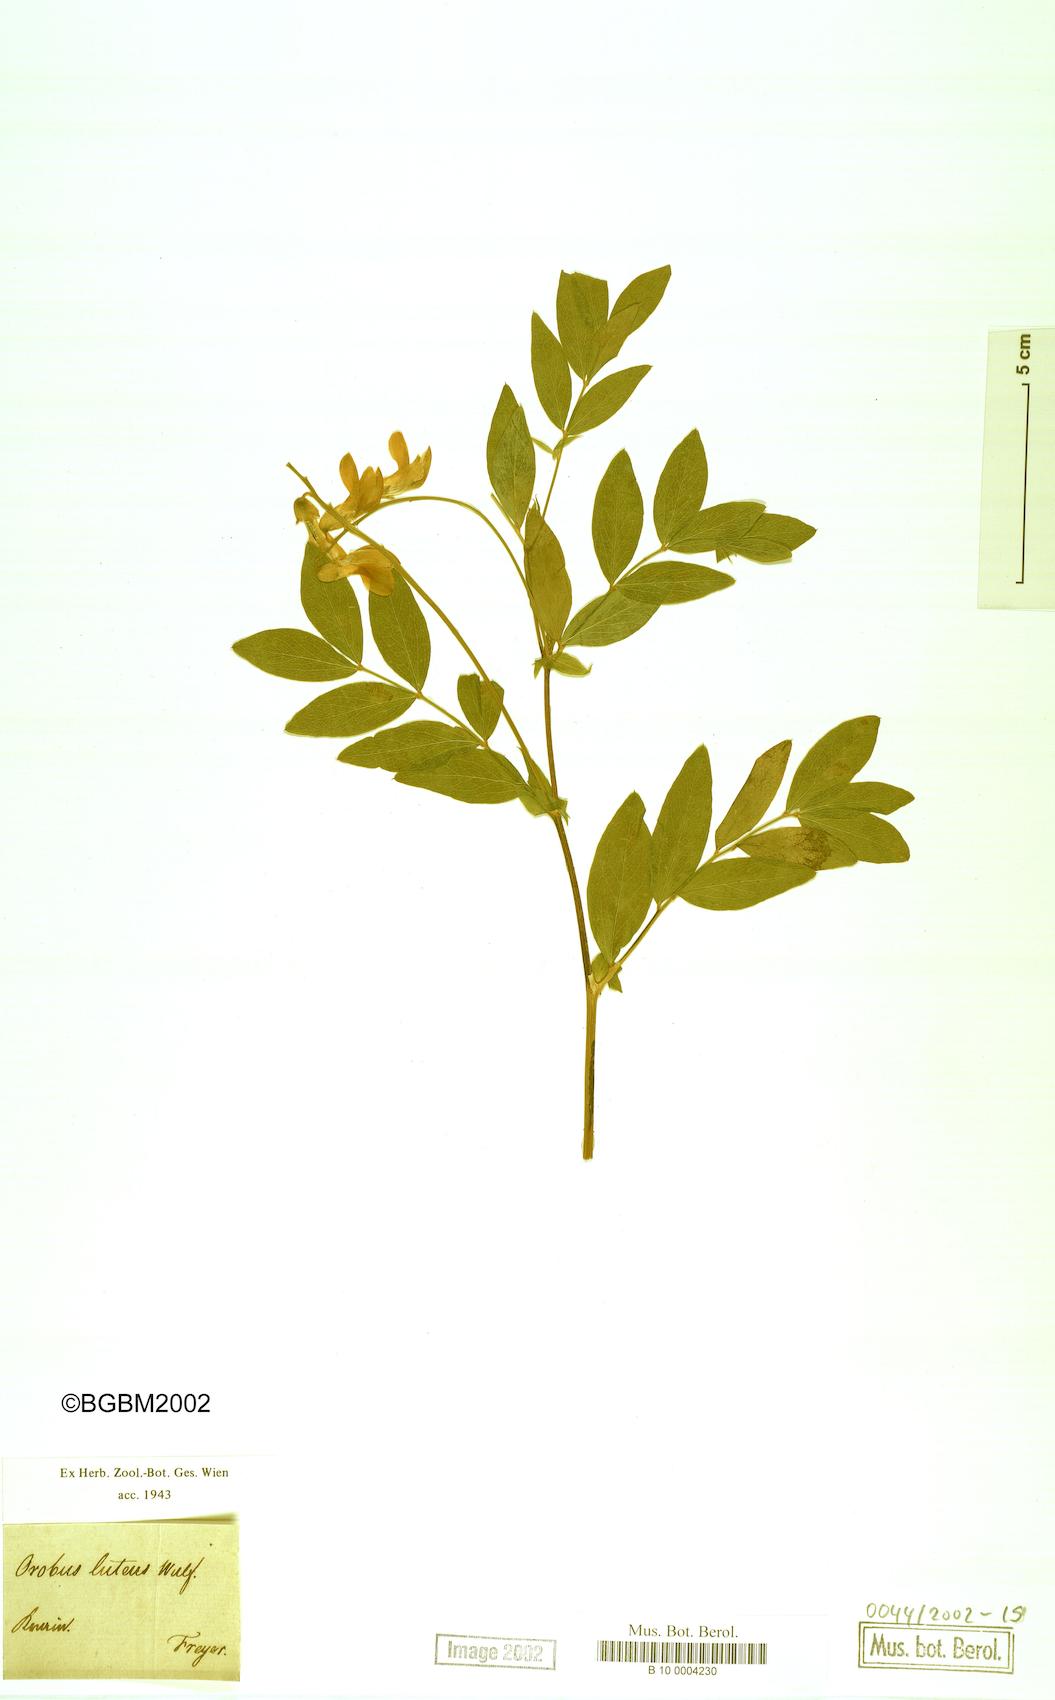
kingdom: Plantae
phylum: Tracheophyta
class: Magnoliopsida
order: Fabales
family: Fabaceae
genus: Lathyrus
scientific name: Lathyrus gmelinii
